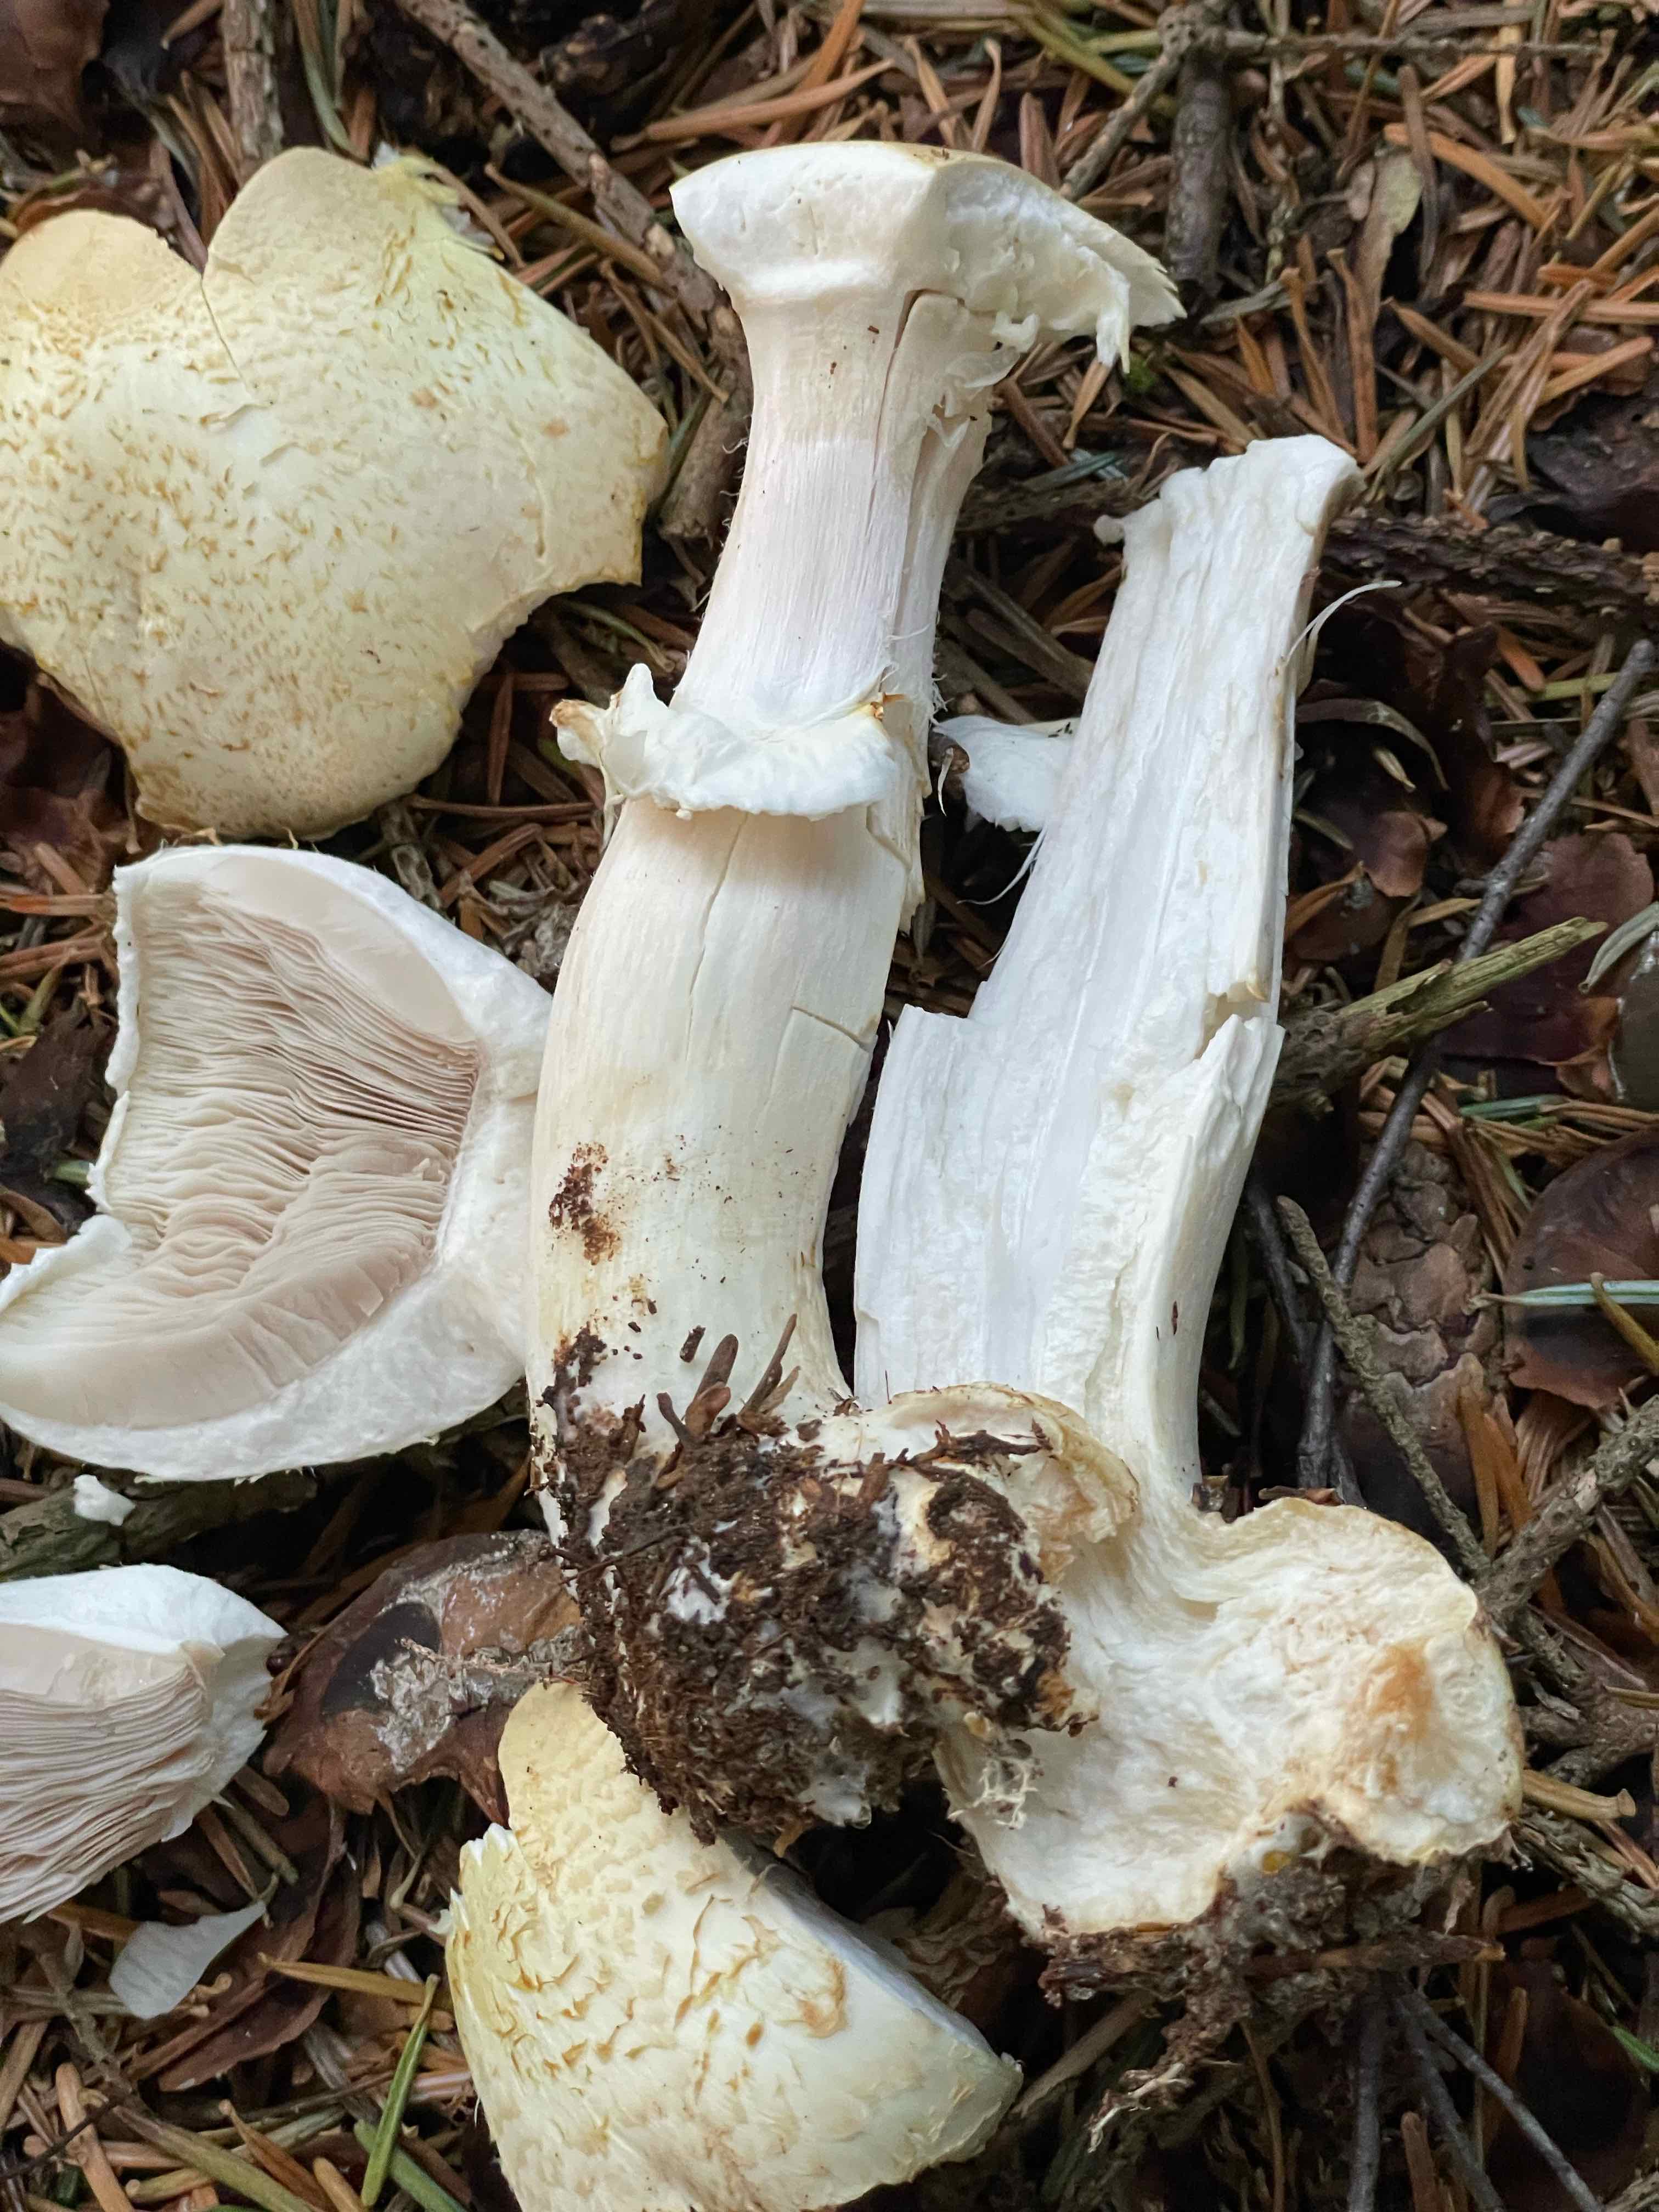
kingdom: Fungi
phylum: Basidiomycota
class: Agaricomycetes
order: Agaricales
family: Agaricaceae
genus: Agaricus
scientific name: Agaricus
